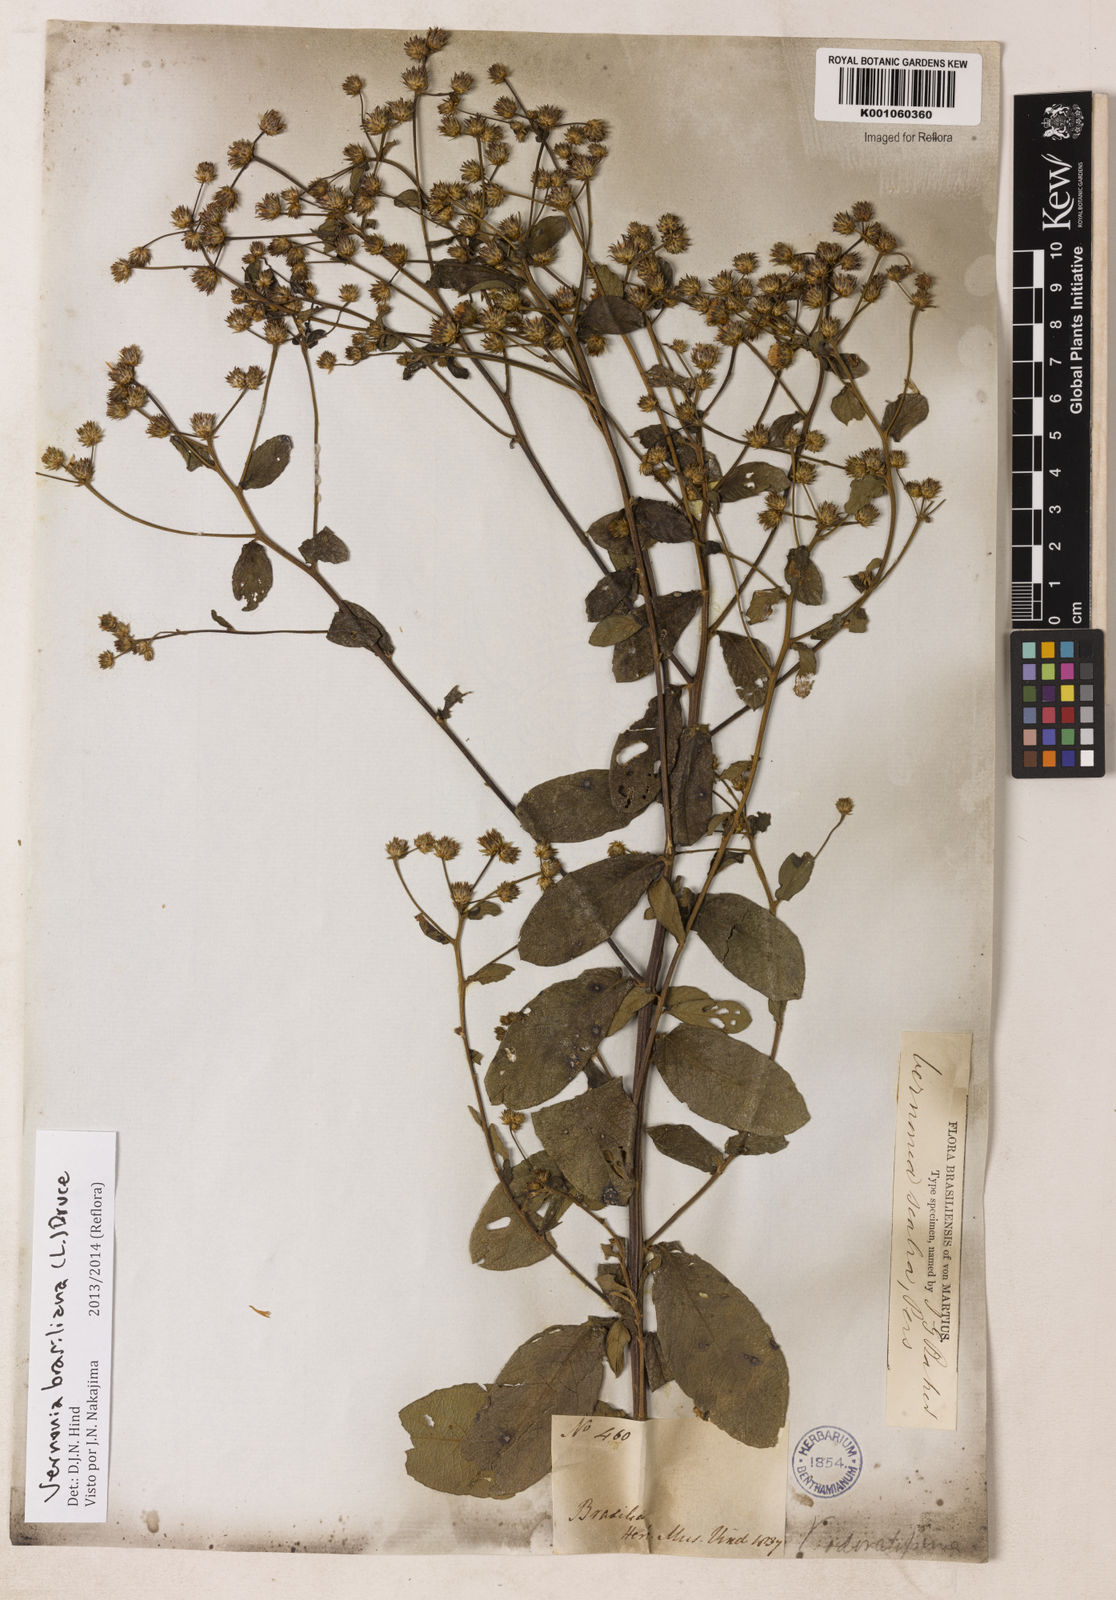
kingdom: Plantae
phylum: Tracheophyta
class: Magnoliopsida
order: Asterales
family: Asteraceae
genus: Vernonanthura
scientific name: Vernonanthura brasiliana
